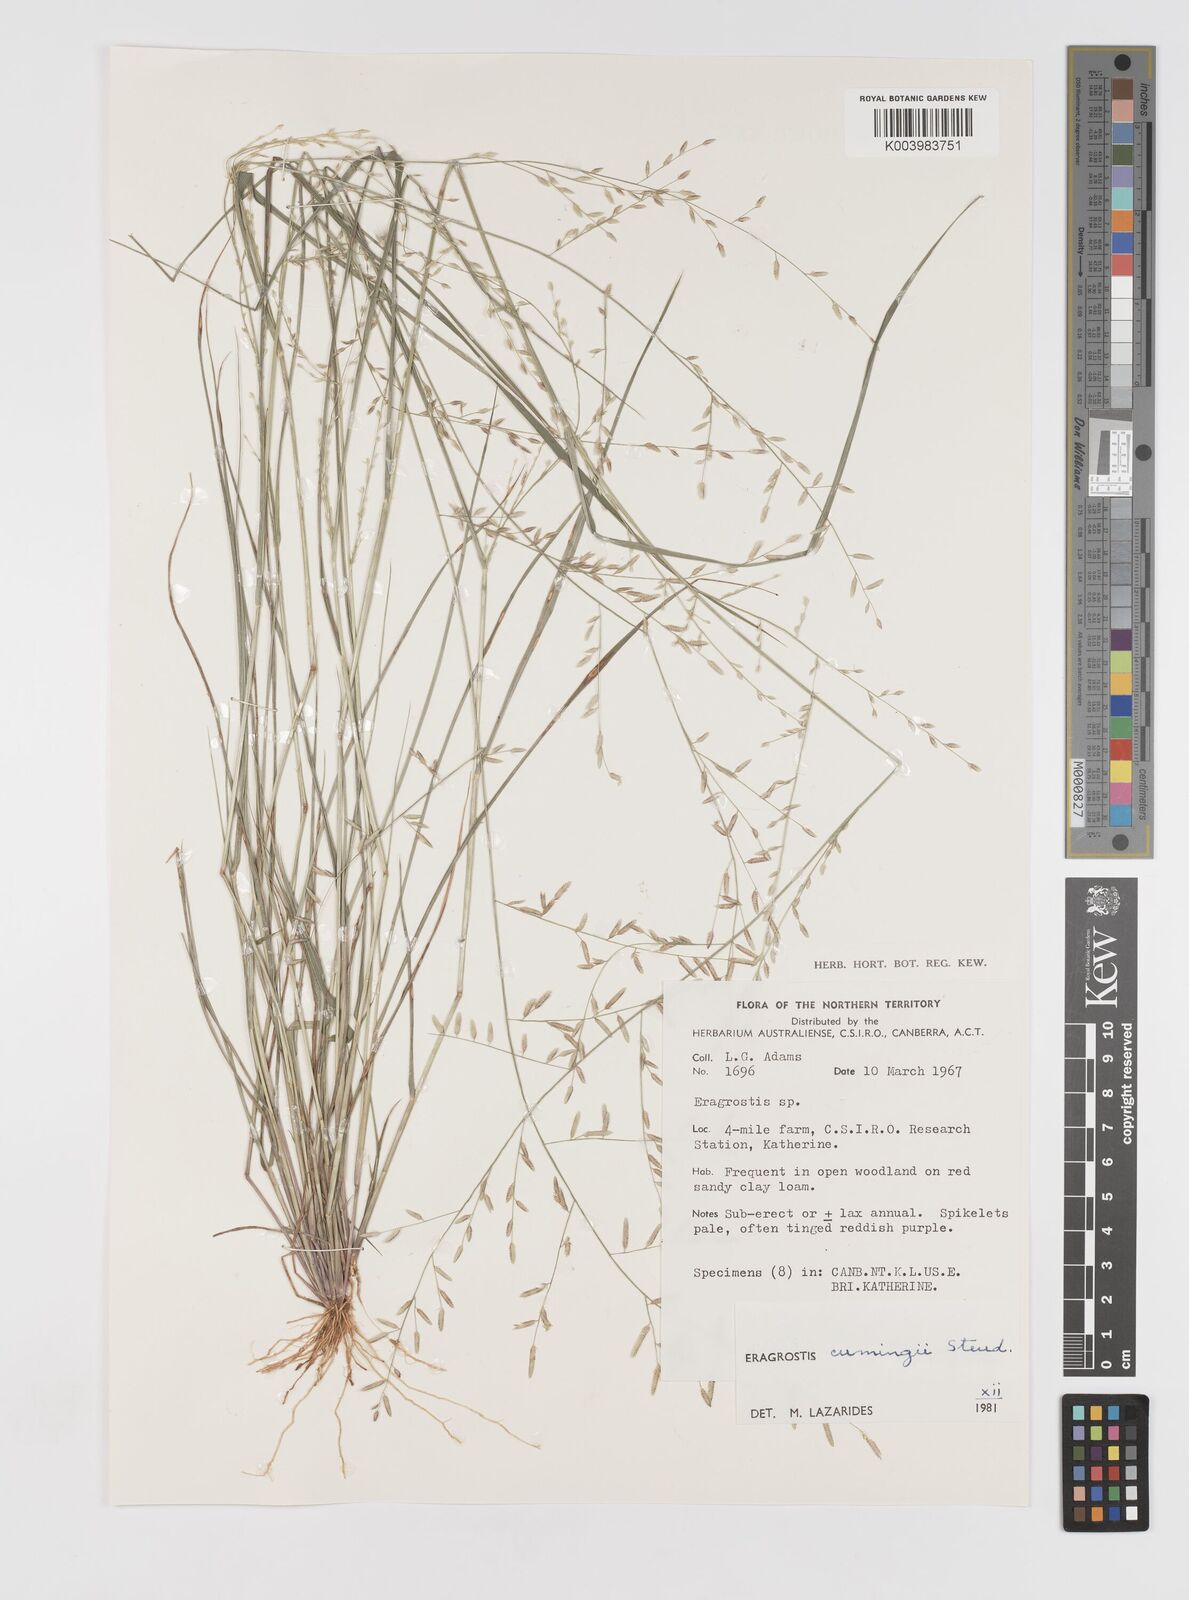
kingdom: Plantae
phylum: Tracheophyta
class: Liliopsida
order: Poales
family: Poaceae
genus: Eragrostis
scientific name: Eragrostis cumingii
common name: Cuming's lovegrass
